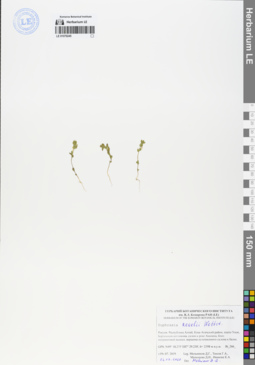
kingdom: Plantae
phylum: Tracheophyta
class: Magnoliopsida
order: Lamiales
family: Orobanchaceae
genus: Euphrasia
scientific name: Euphrasia regelii
